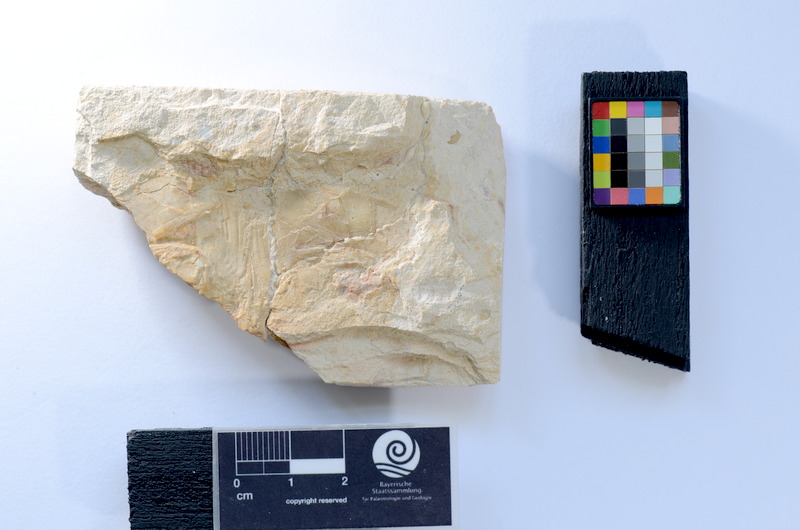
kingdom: Animalia
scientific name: Animalia
